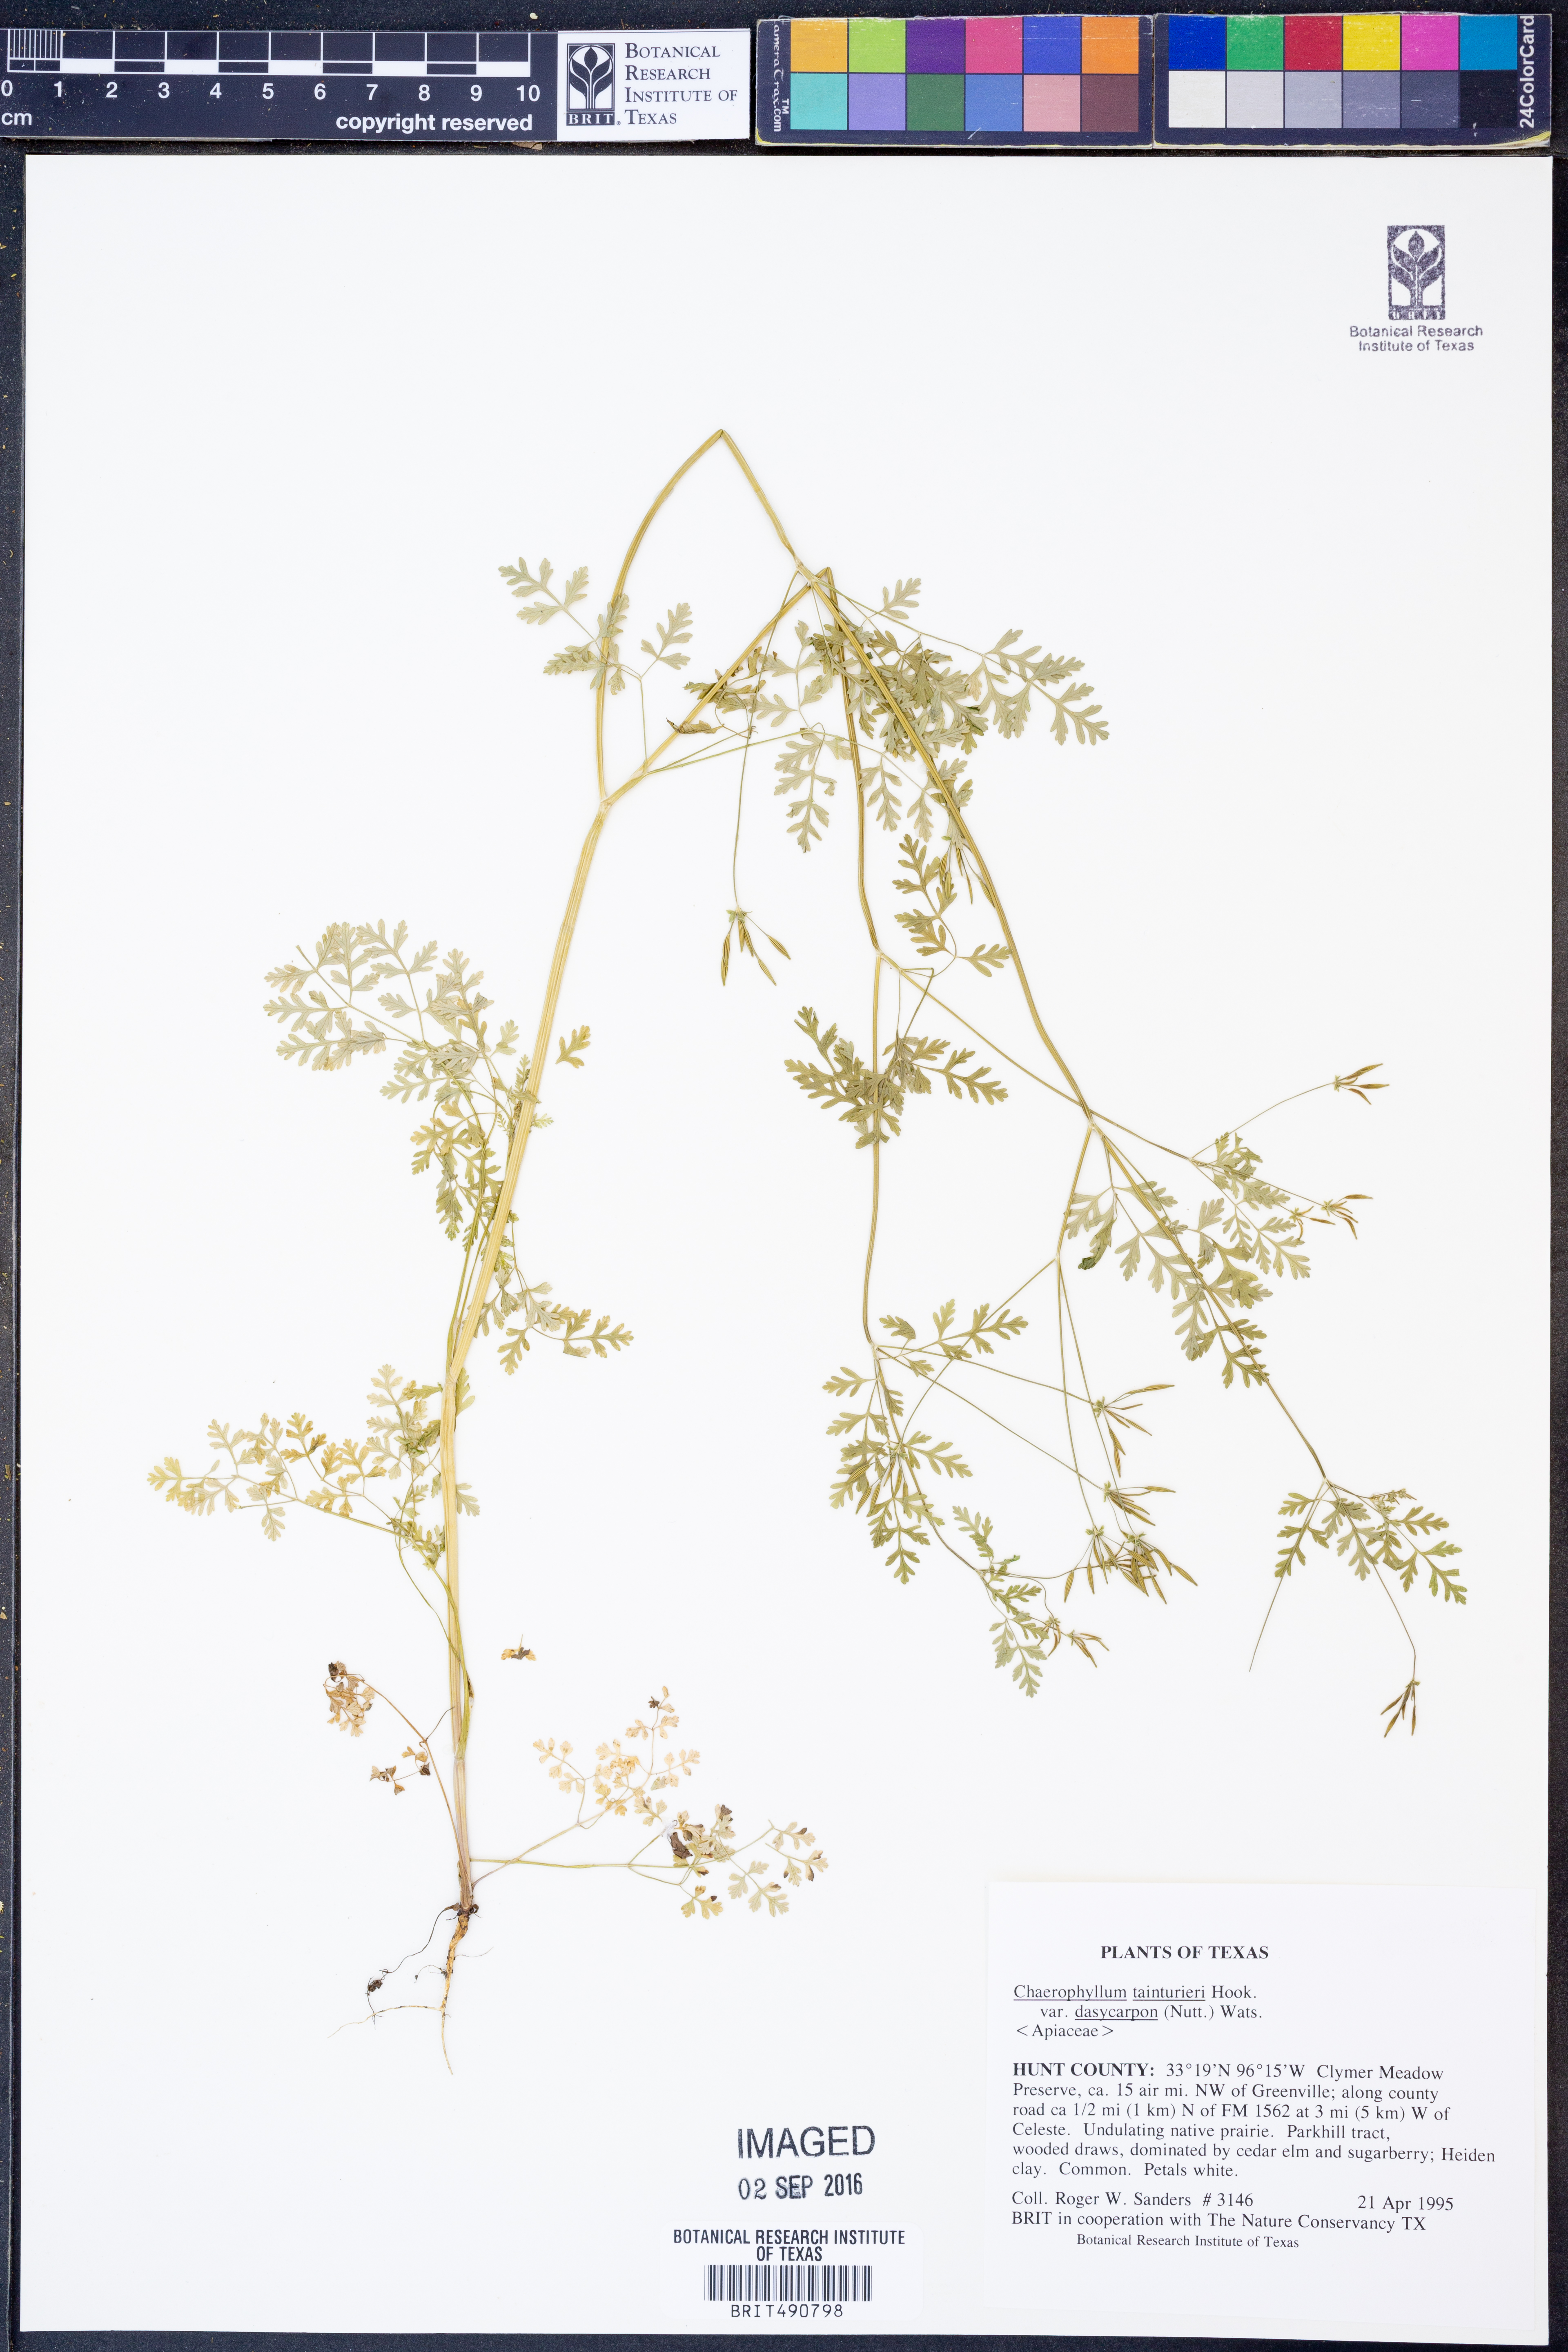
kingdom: Plantae
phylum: Tracheophyta
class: Magnoliopsida
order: Apiales
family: Apiaceae
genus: Chaerophyllum
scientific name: Chaerophyllum dasycarpum
